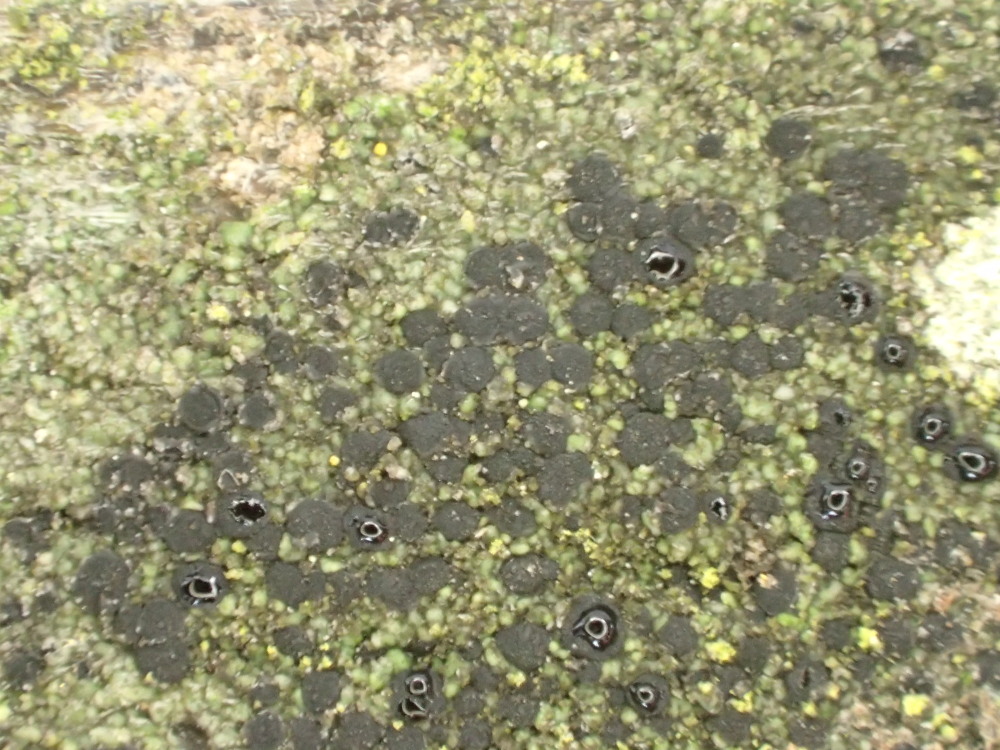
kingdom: Fungi
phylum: Ascomycota
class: Lecanoromycetes
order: Lecanorales
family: Lecanoraceae
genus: Lecidella
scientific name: Lecidella elaeochroma
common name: grågrøn skivelav
